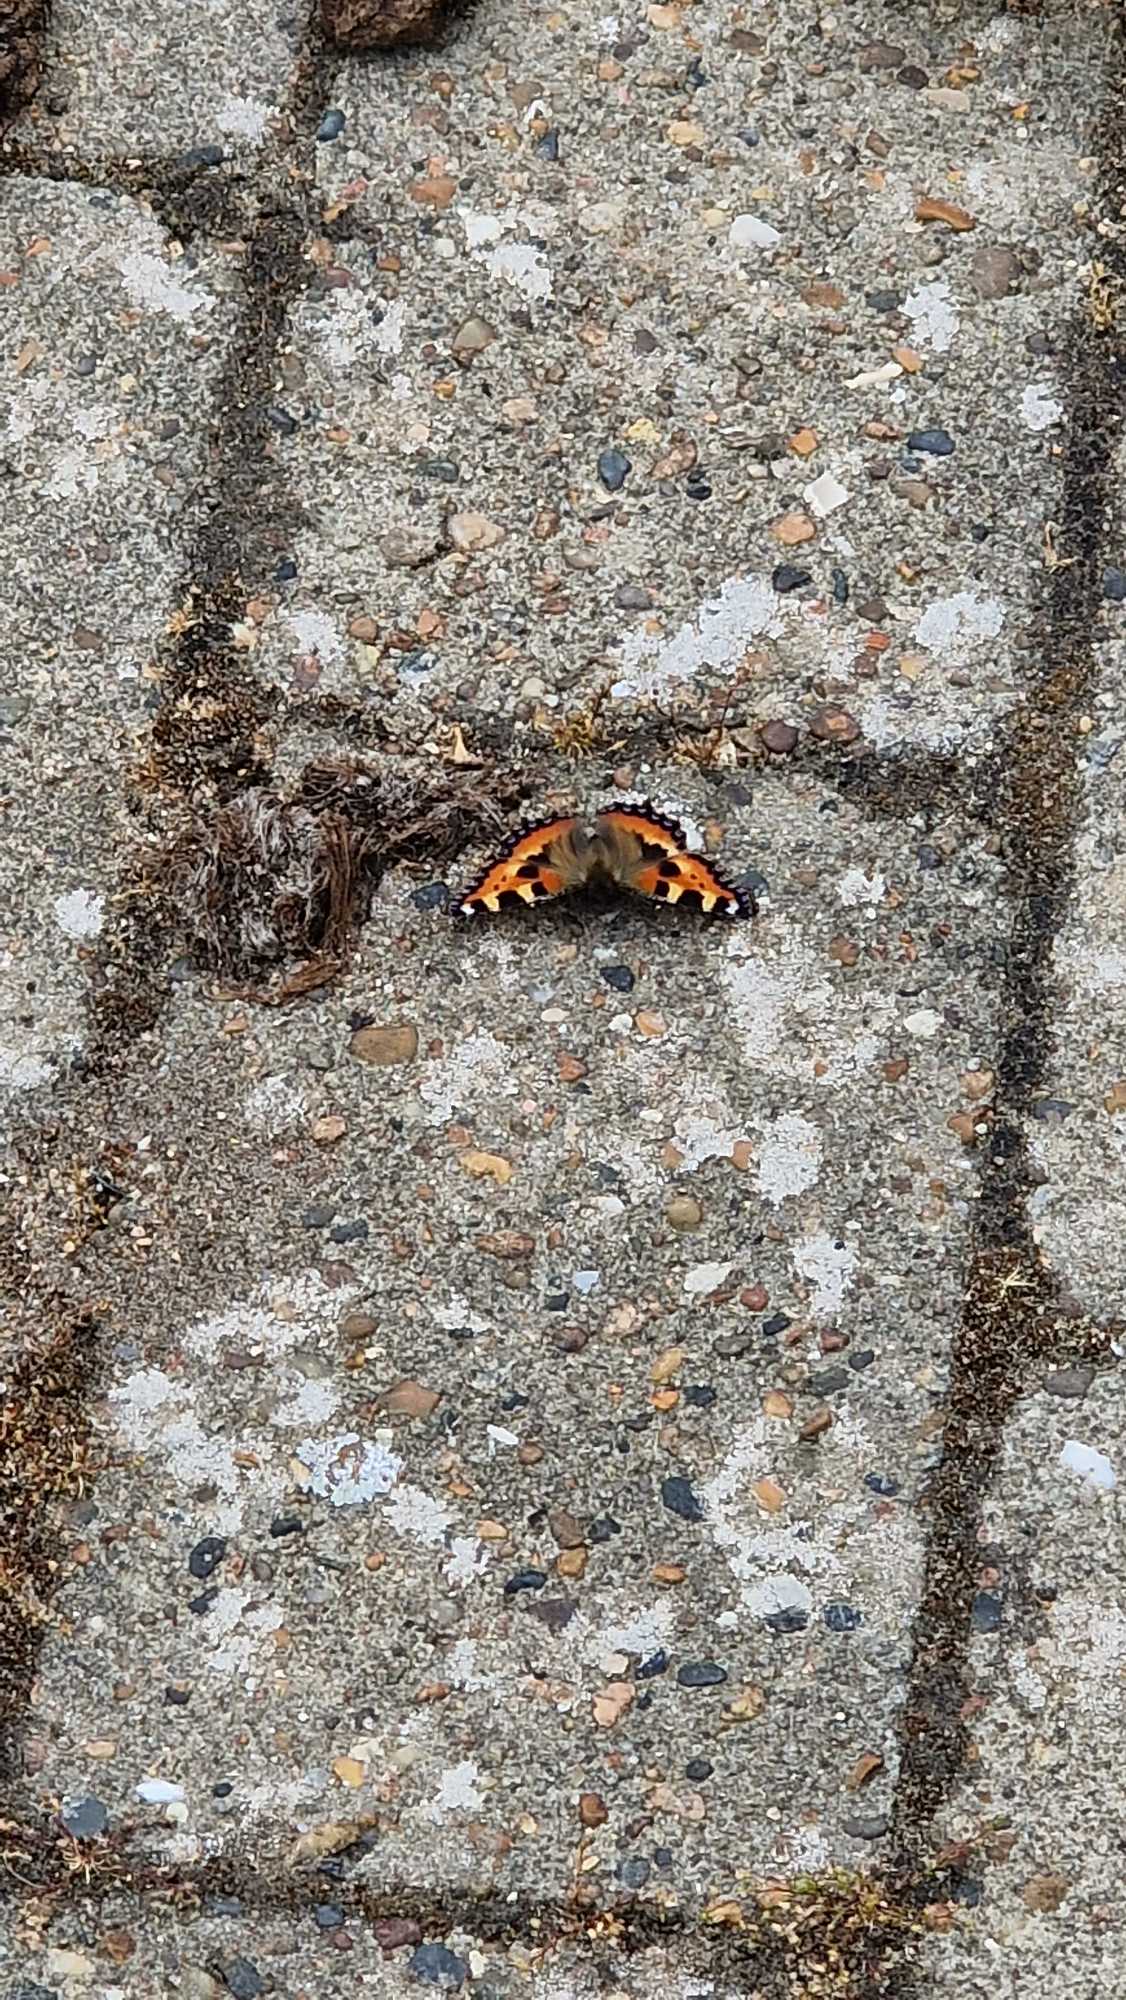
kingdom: Animalia
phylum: Arthropoda
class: Insecta
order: Lepidoptera
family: Nymphalidae
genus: Aglais
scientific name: Aglais urticae
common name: Nældens takvinge
